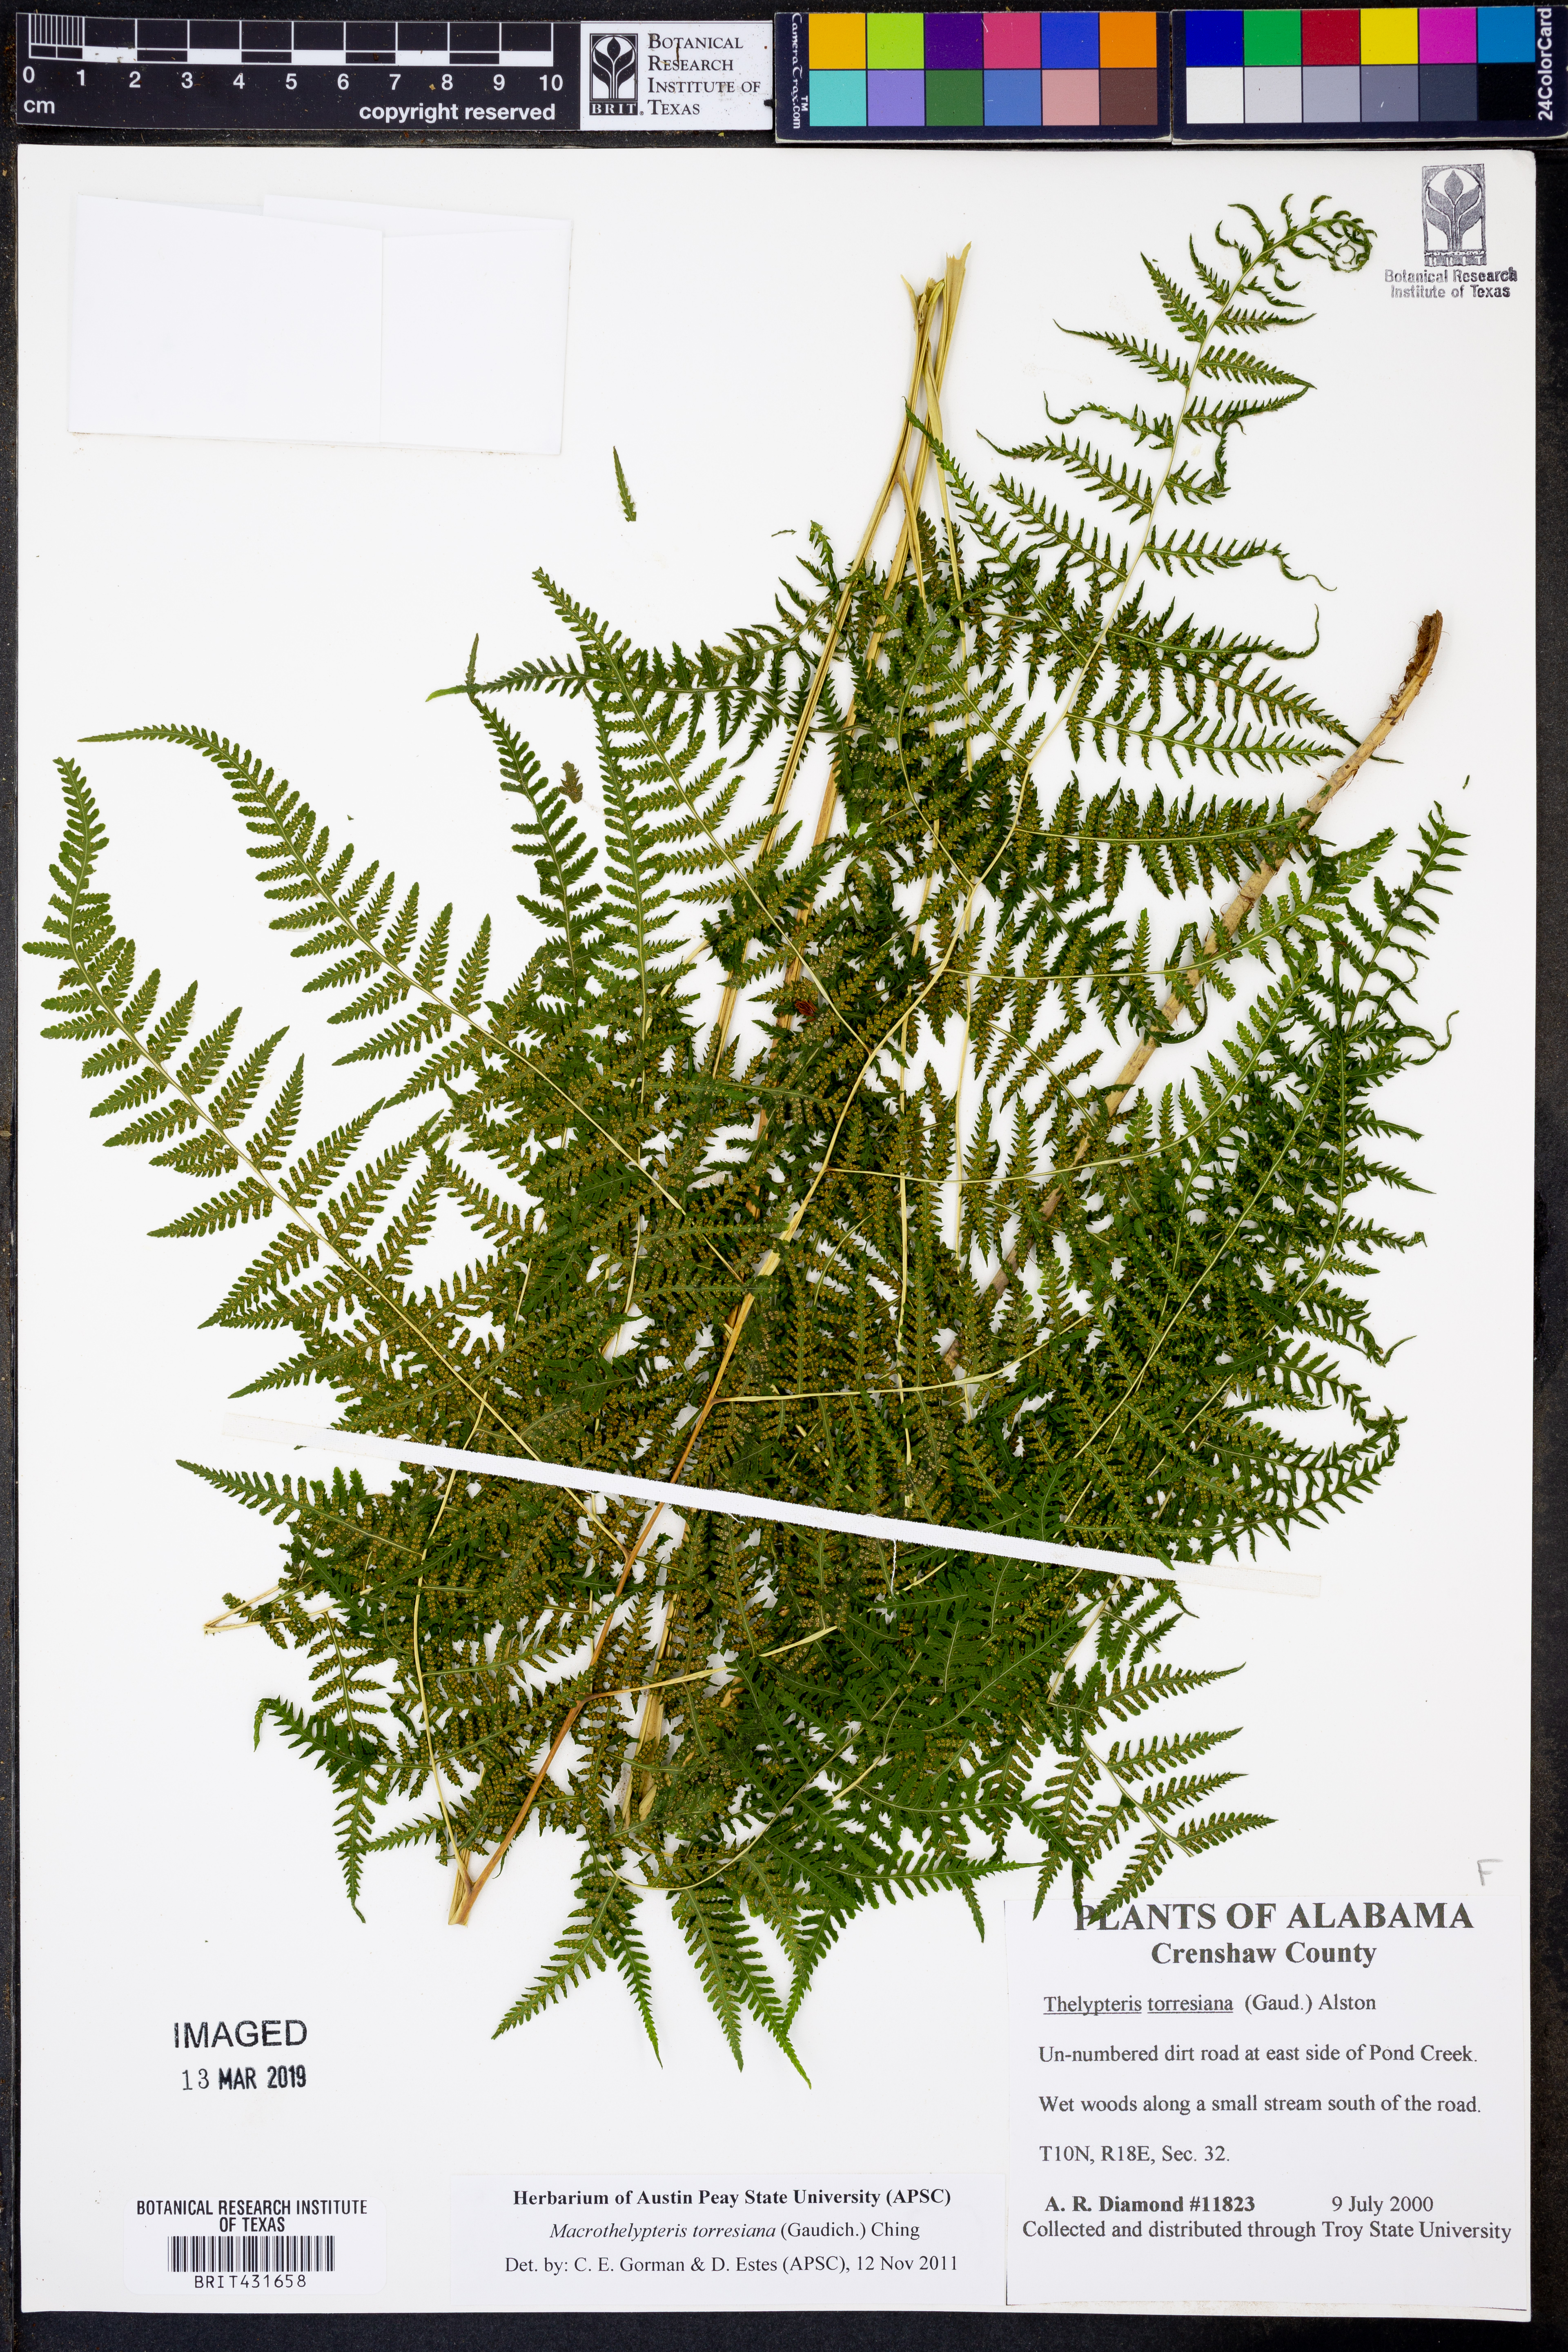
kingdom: Plantae
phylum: Tracheophyta
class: Polypodiopsida
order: Polypodiales
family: Thelypteridaceae
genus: Macrothelypteris
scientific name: Macrothelypteris torresiana
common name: Swordfern
